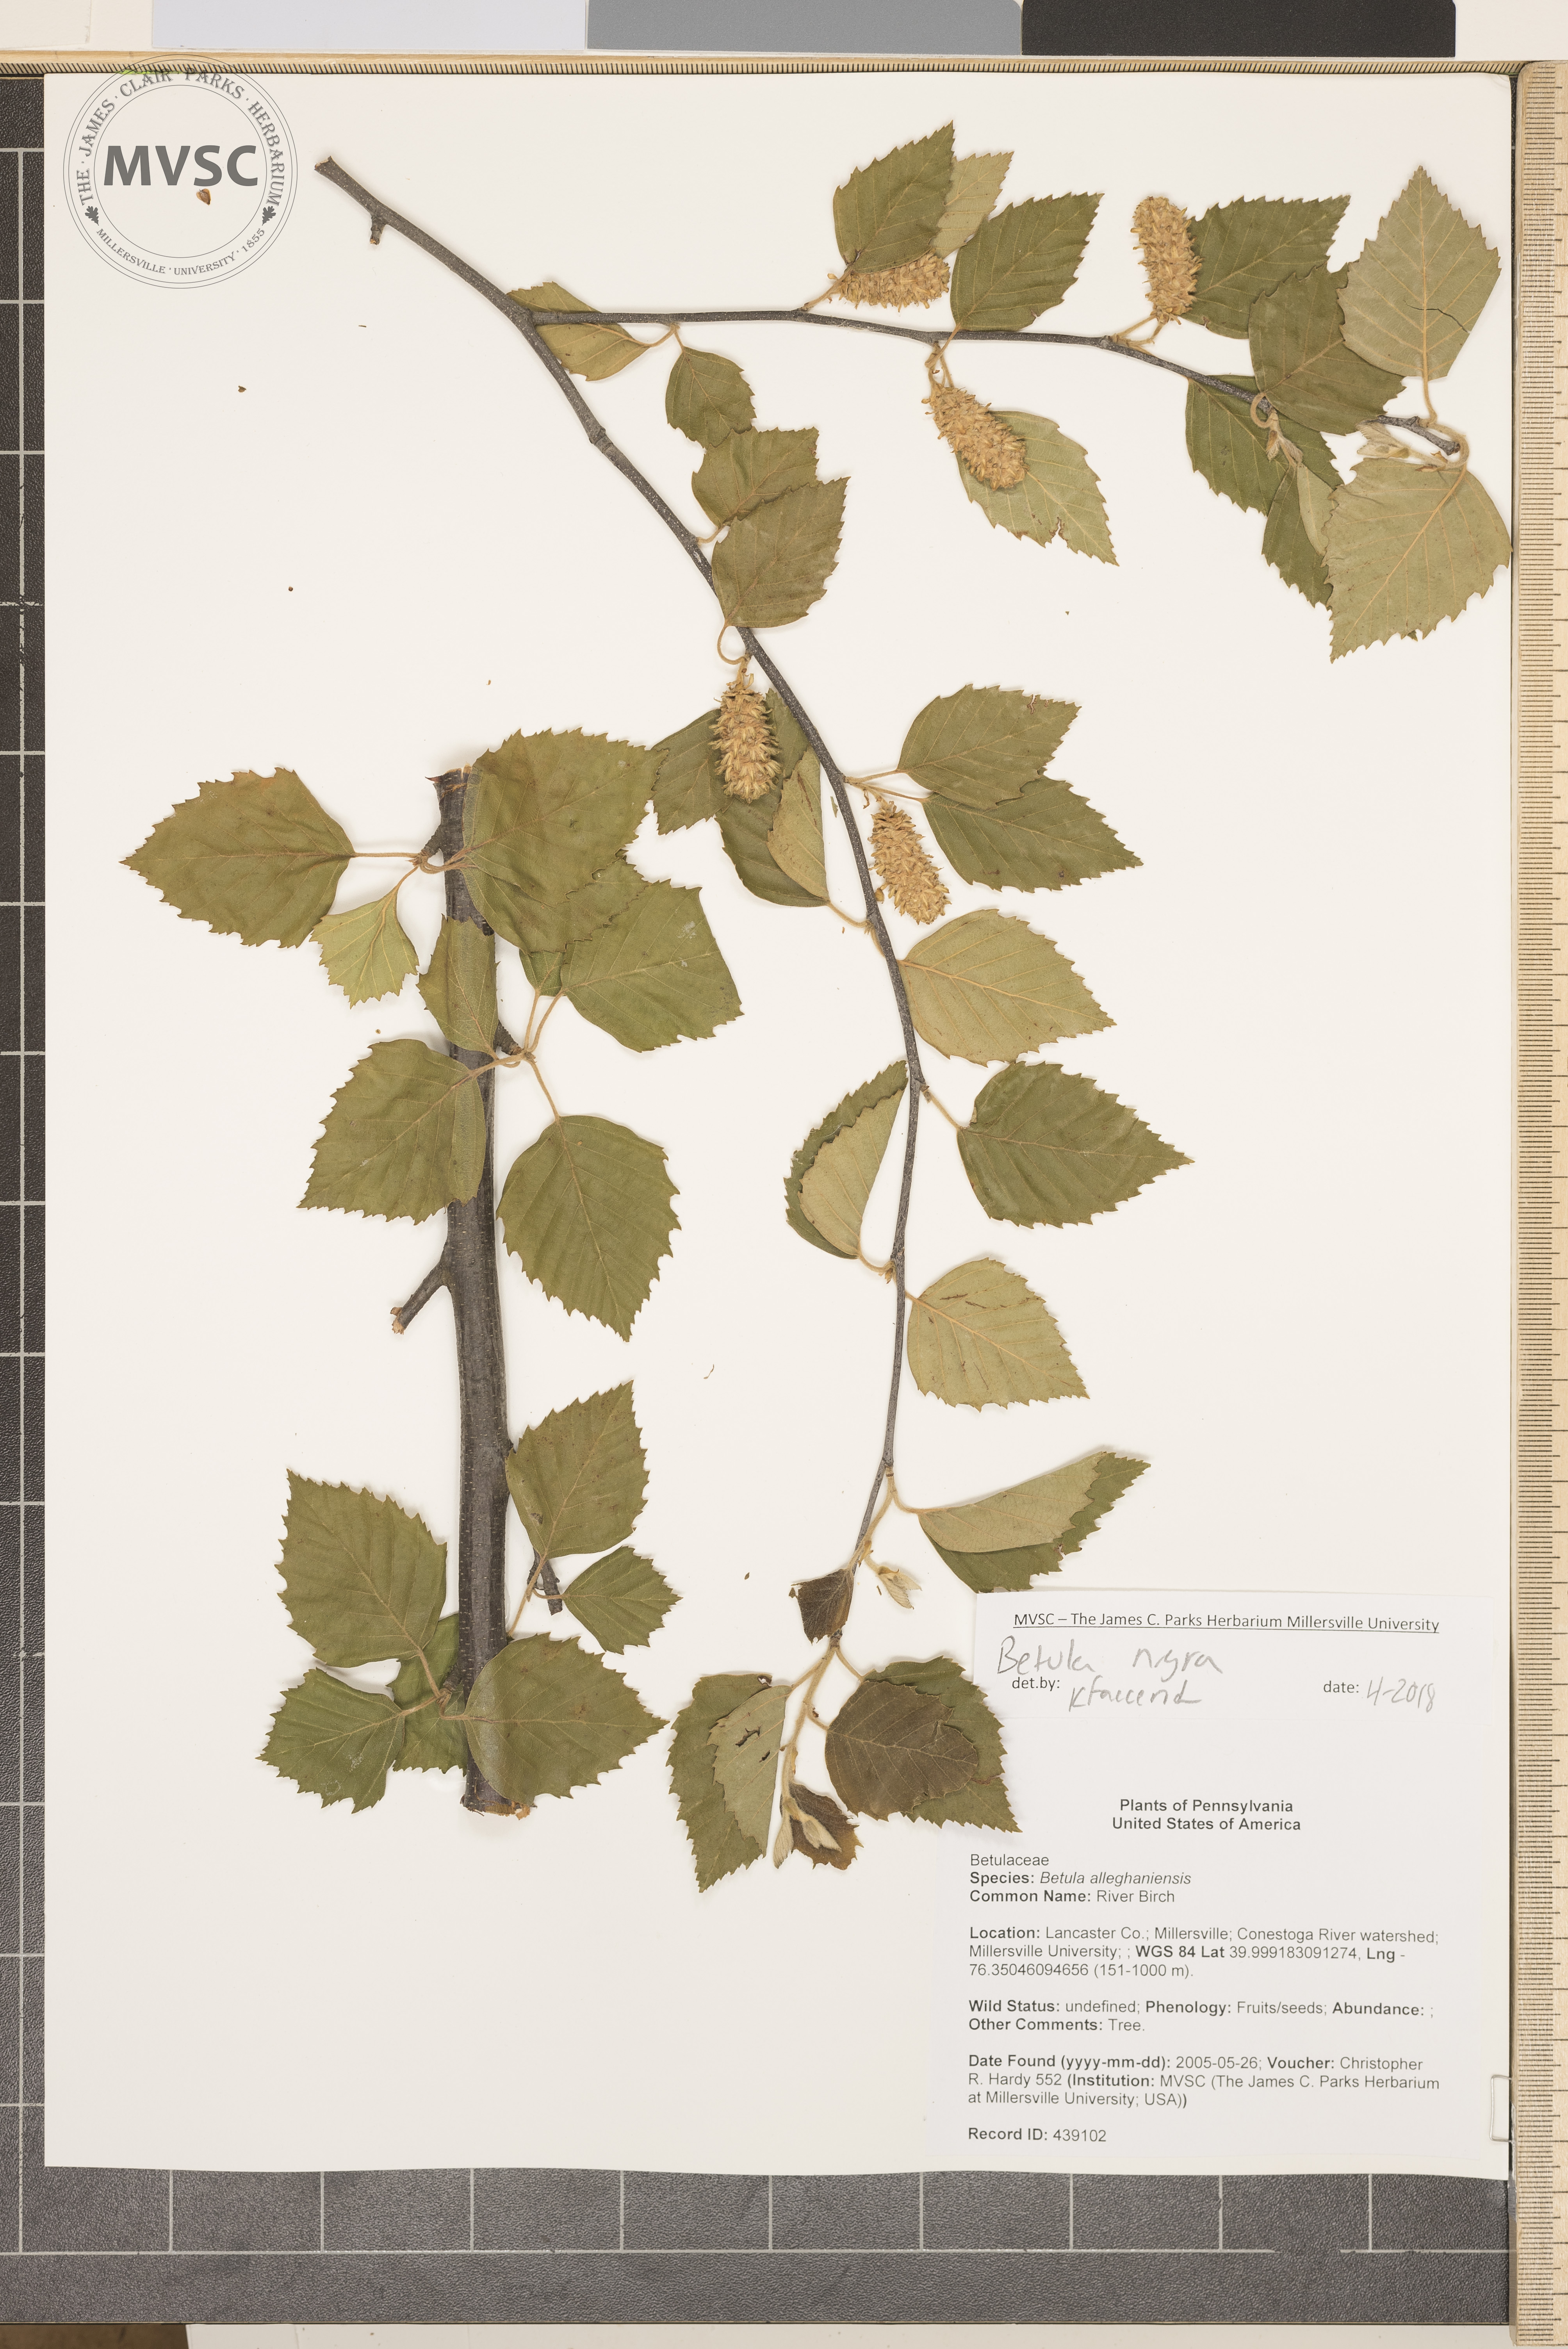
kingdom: Plantae
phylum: Tracheophyta
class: Magnoliopsida
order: Fagales
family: Betulaceae
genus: Betula
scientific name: Betula nigra
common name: River Birch
